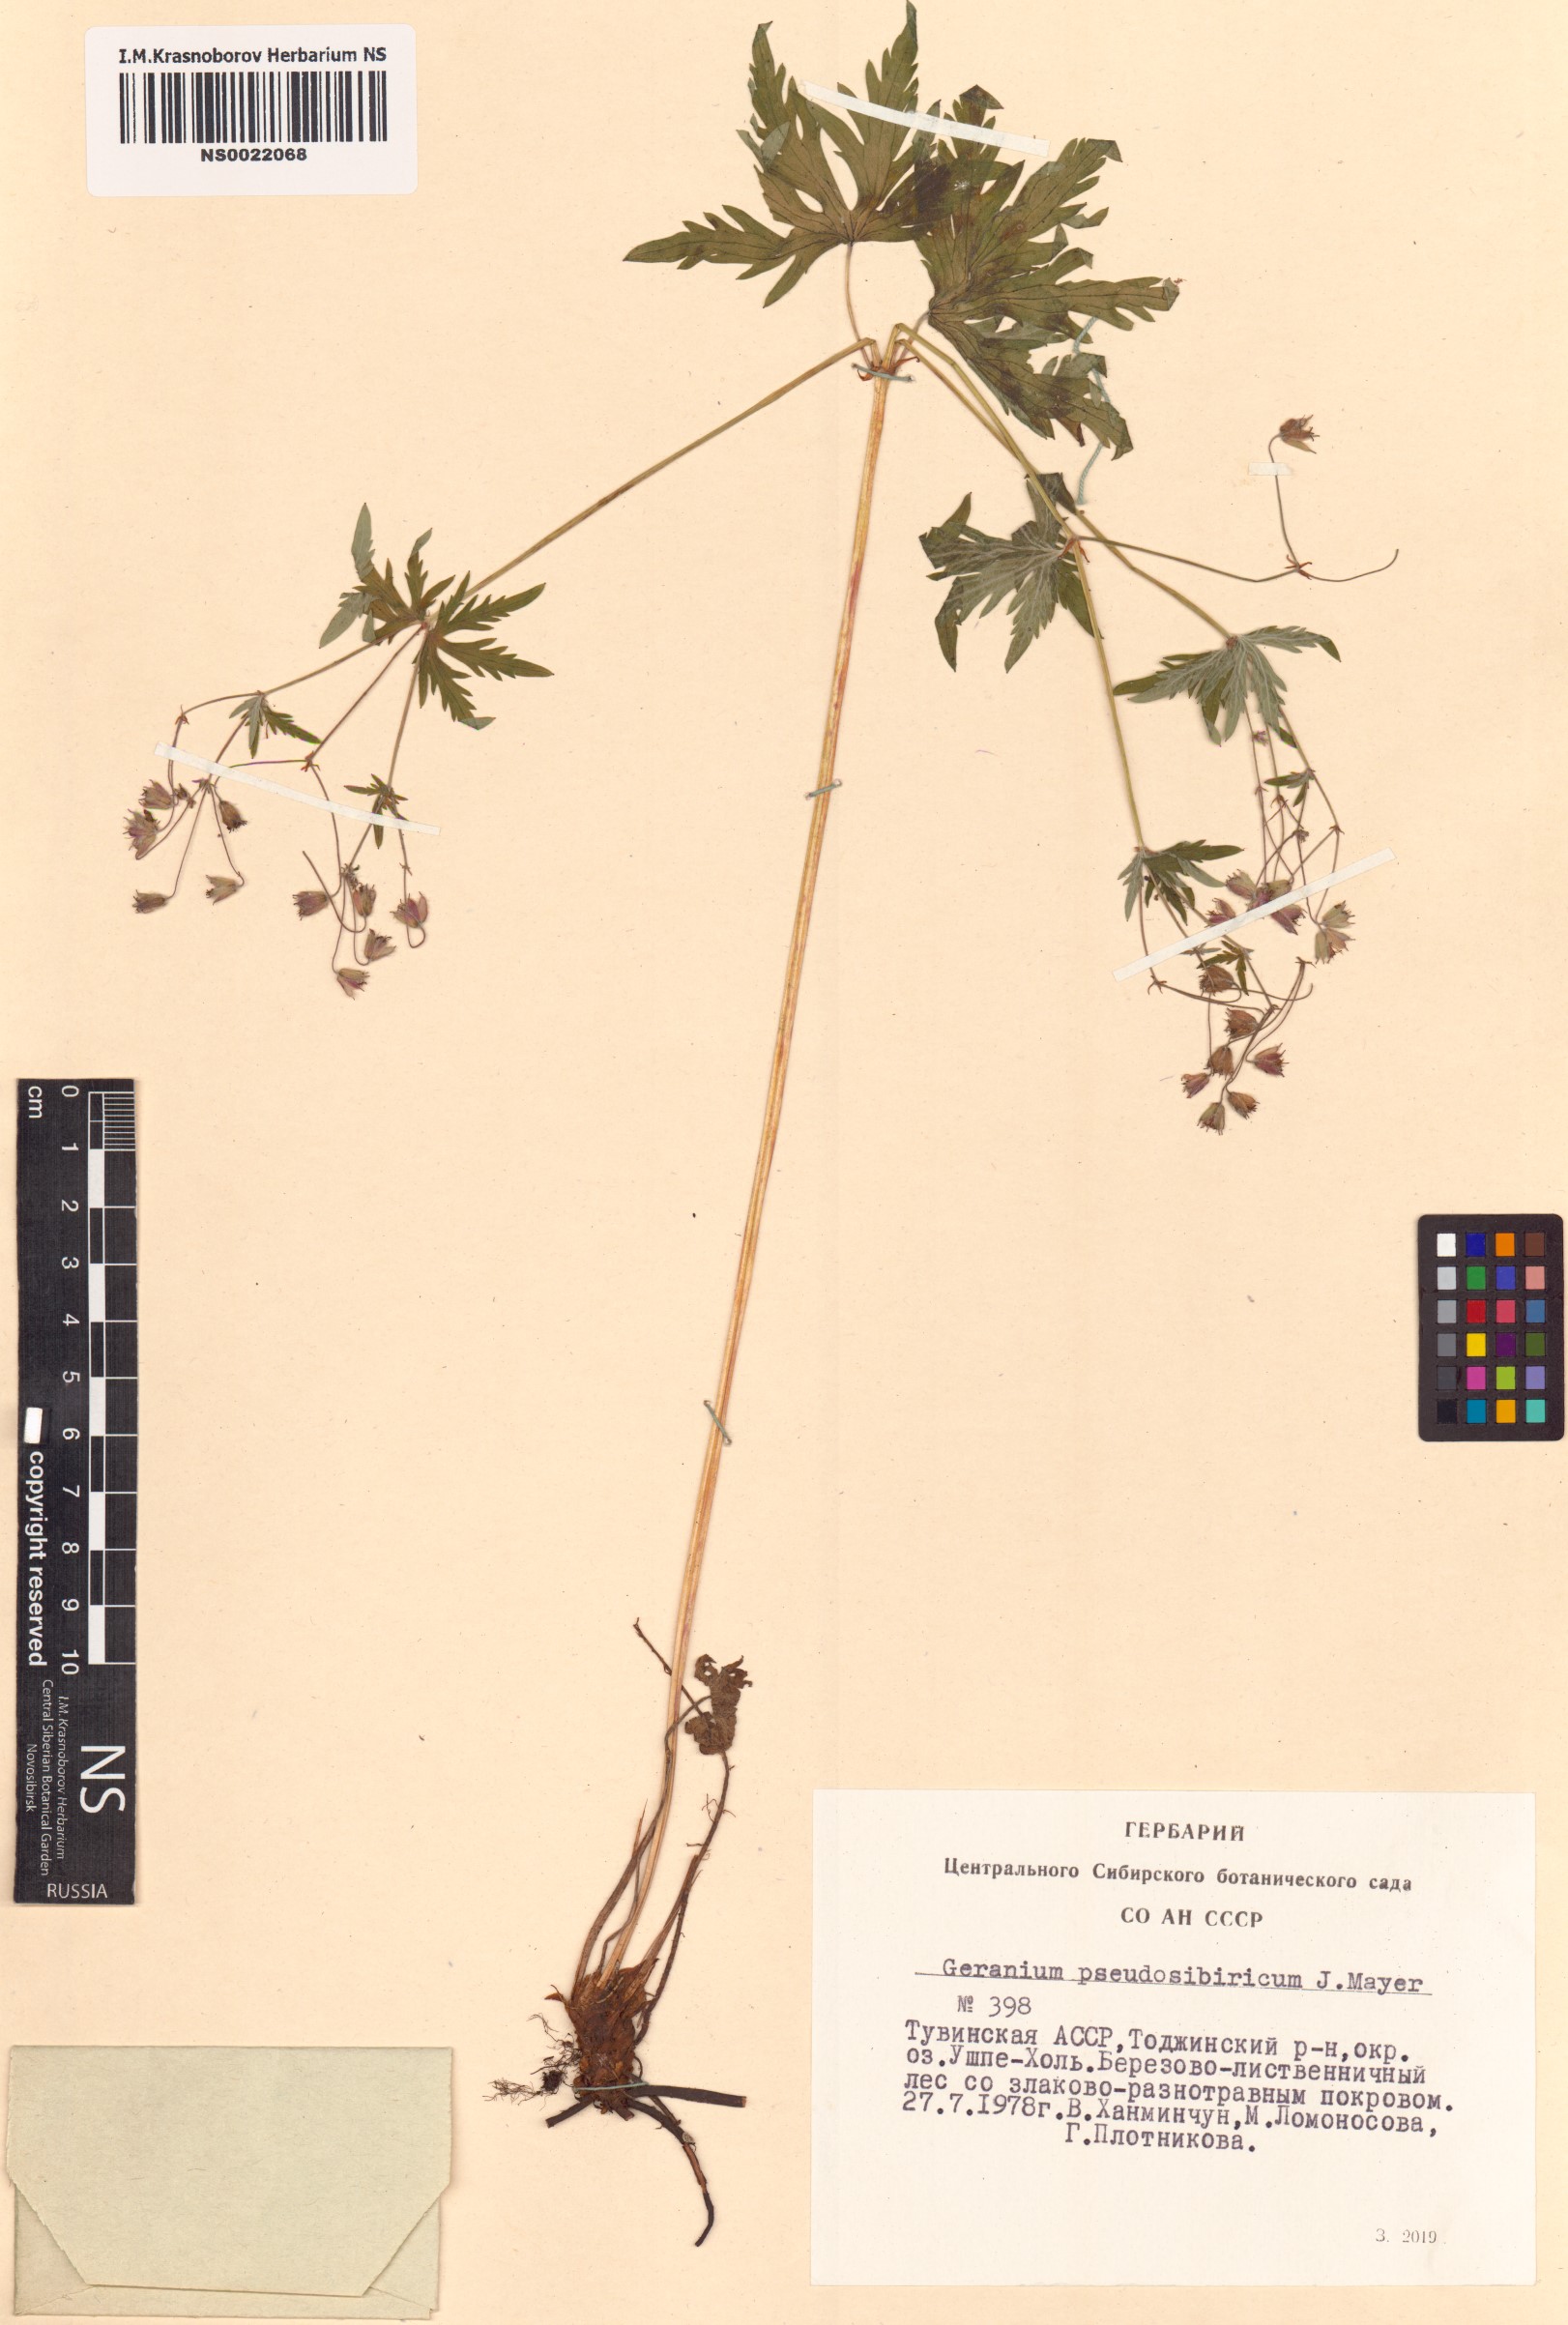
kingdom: Plantae
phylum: Tracheophyta
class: Magnoliopsida
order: Geraniales
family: Geraniaceae
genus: Geranium
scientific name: Geranium pseudosibiricum
